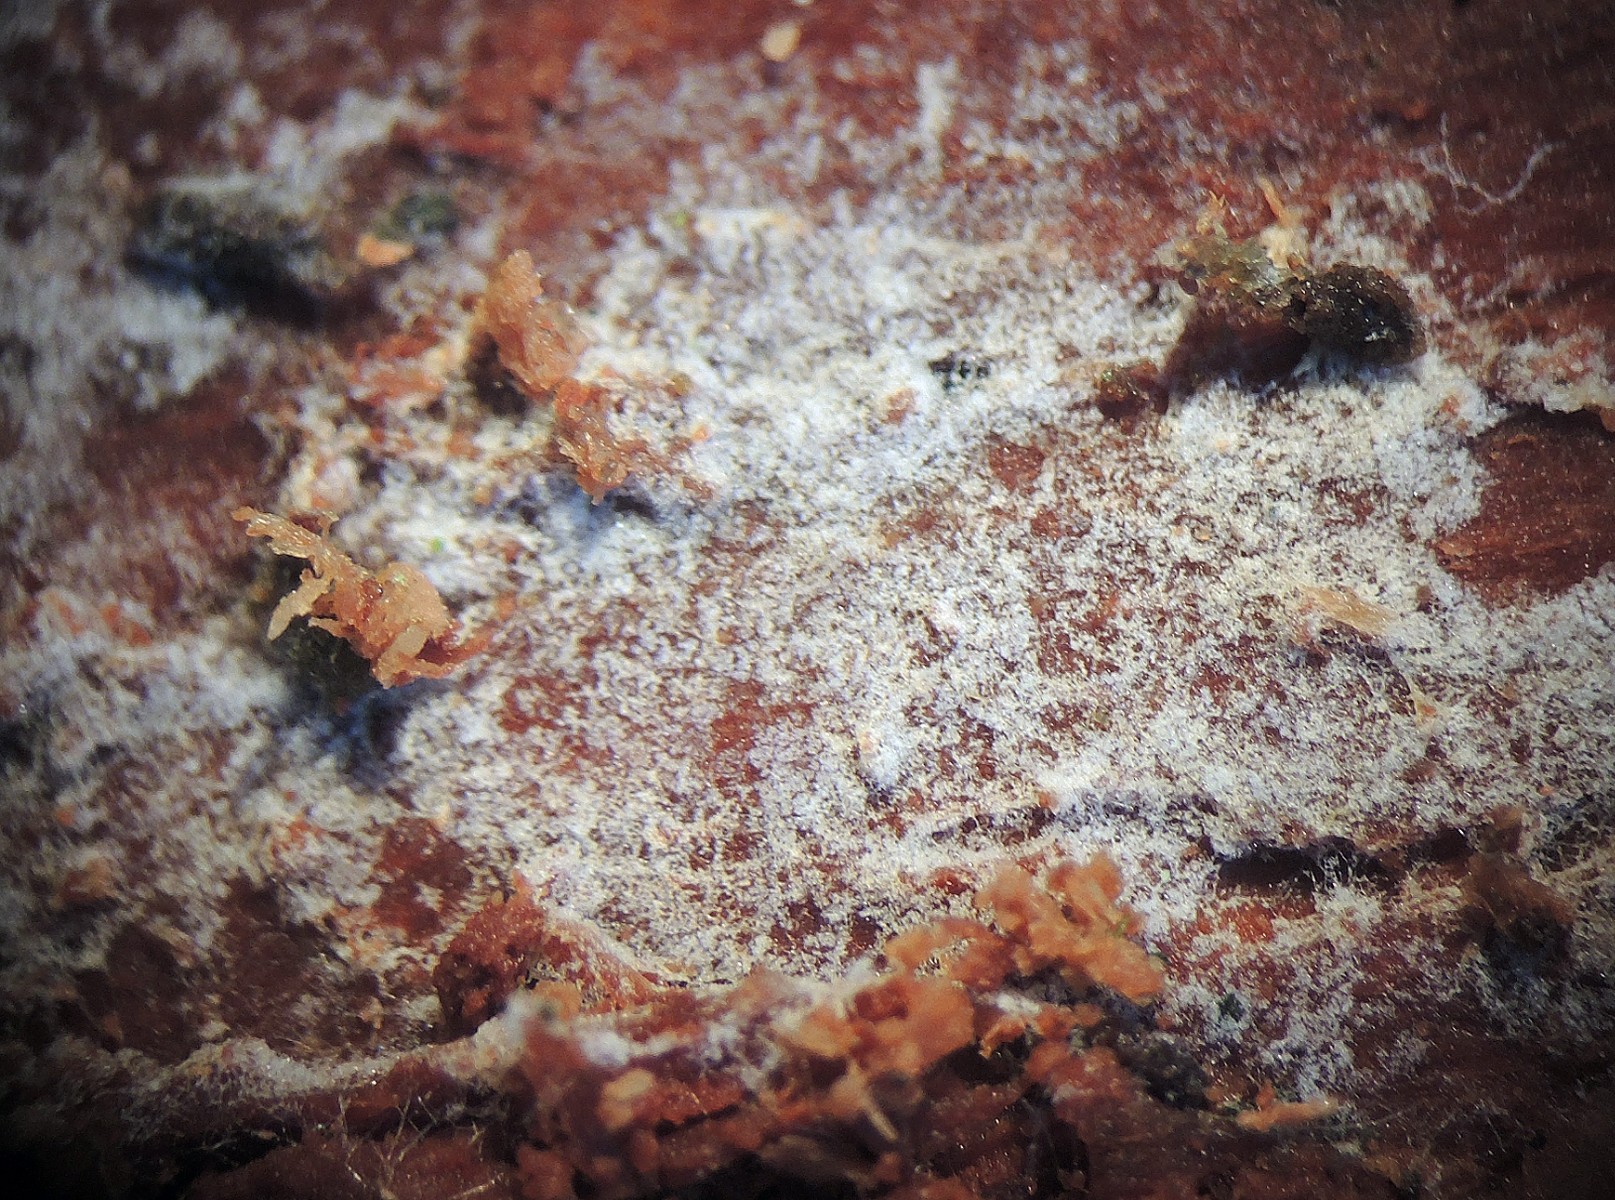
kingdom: Fungi
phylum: Basidiomycota
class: Agaricomycetes
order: Cantharellales
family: Botryobasidiaceae
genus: Botryobasidium
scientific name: Botryobasidium intertextum
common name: tensporet spindhinde
